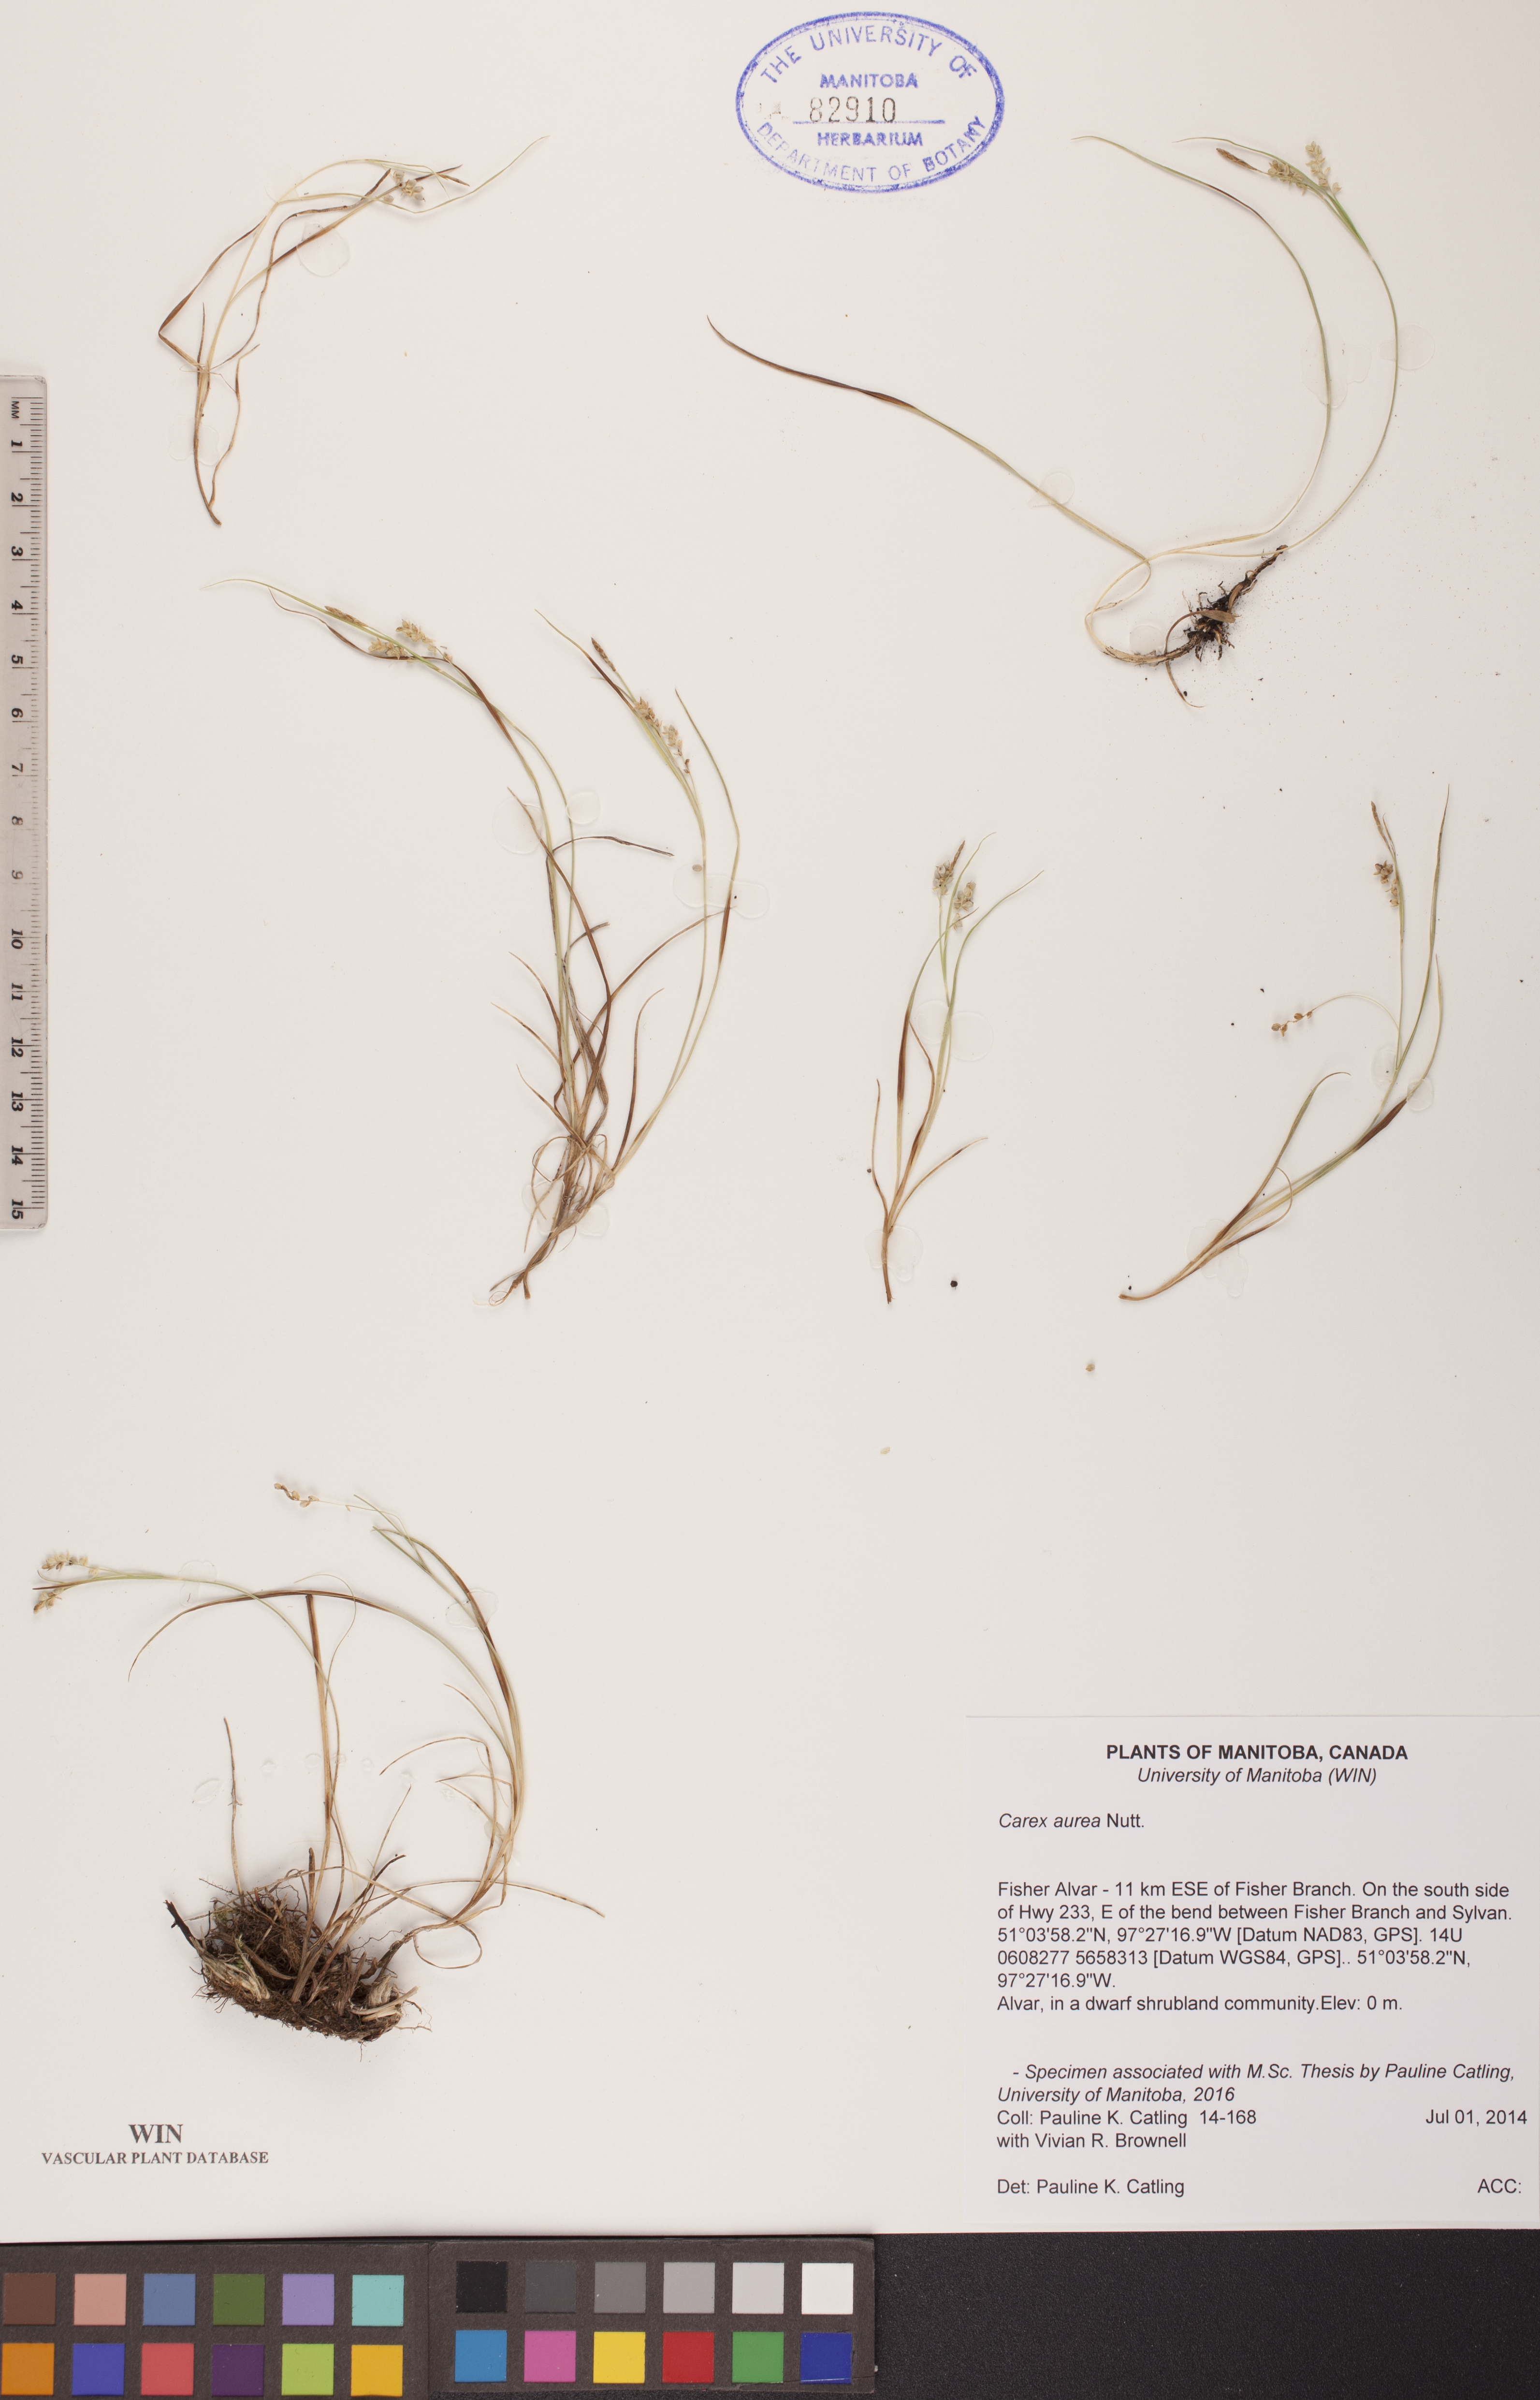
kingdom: Plantae
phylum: Tracheophyta
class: Liliopsida
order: Poales
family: Cyperaceae
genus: Carex
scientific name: Carex aurea
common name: Golden sedge
